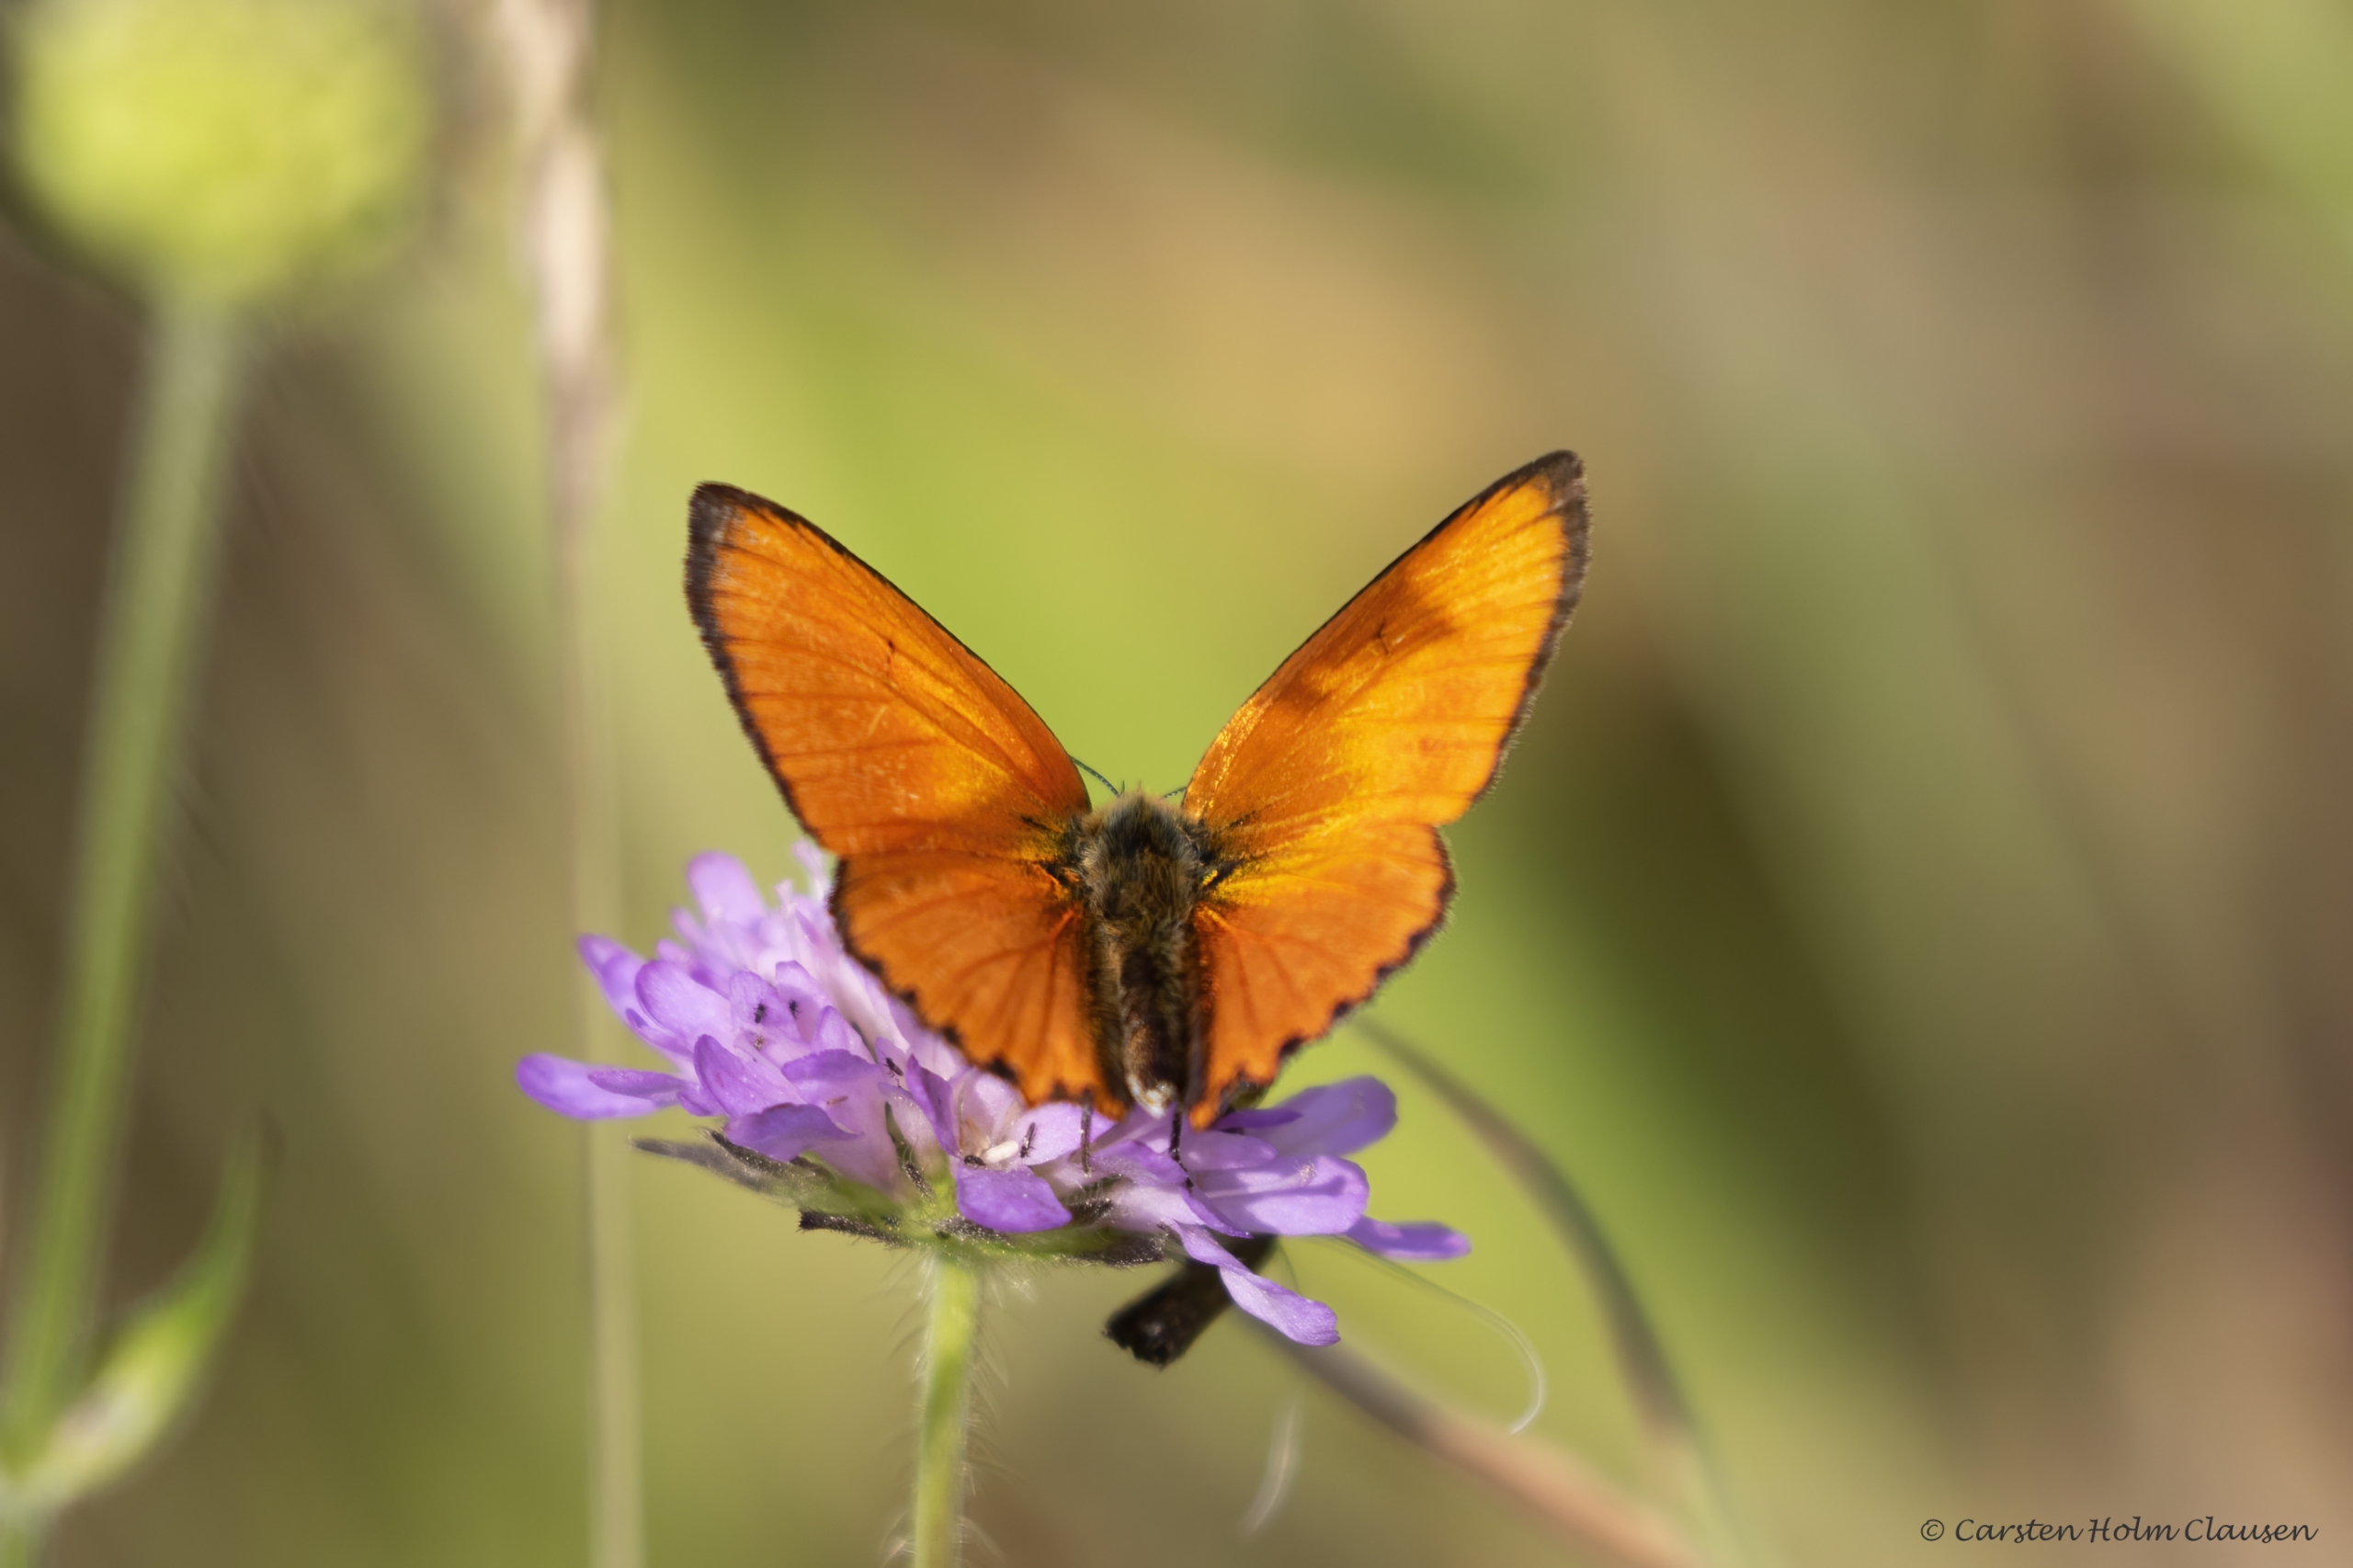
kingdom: Animalia
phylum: Arthropoda
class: Insecta
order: Lepidoptera
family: Lycaenidae
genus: Lycaena
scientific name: Lycaena virgaureae
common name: Dukatsommerfugl
